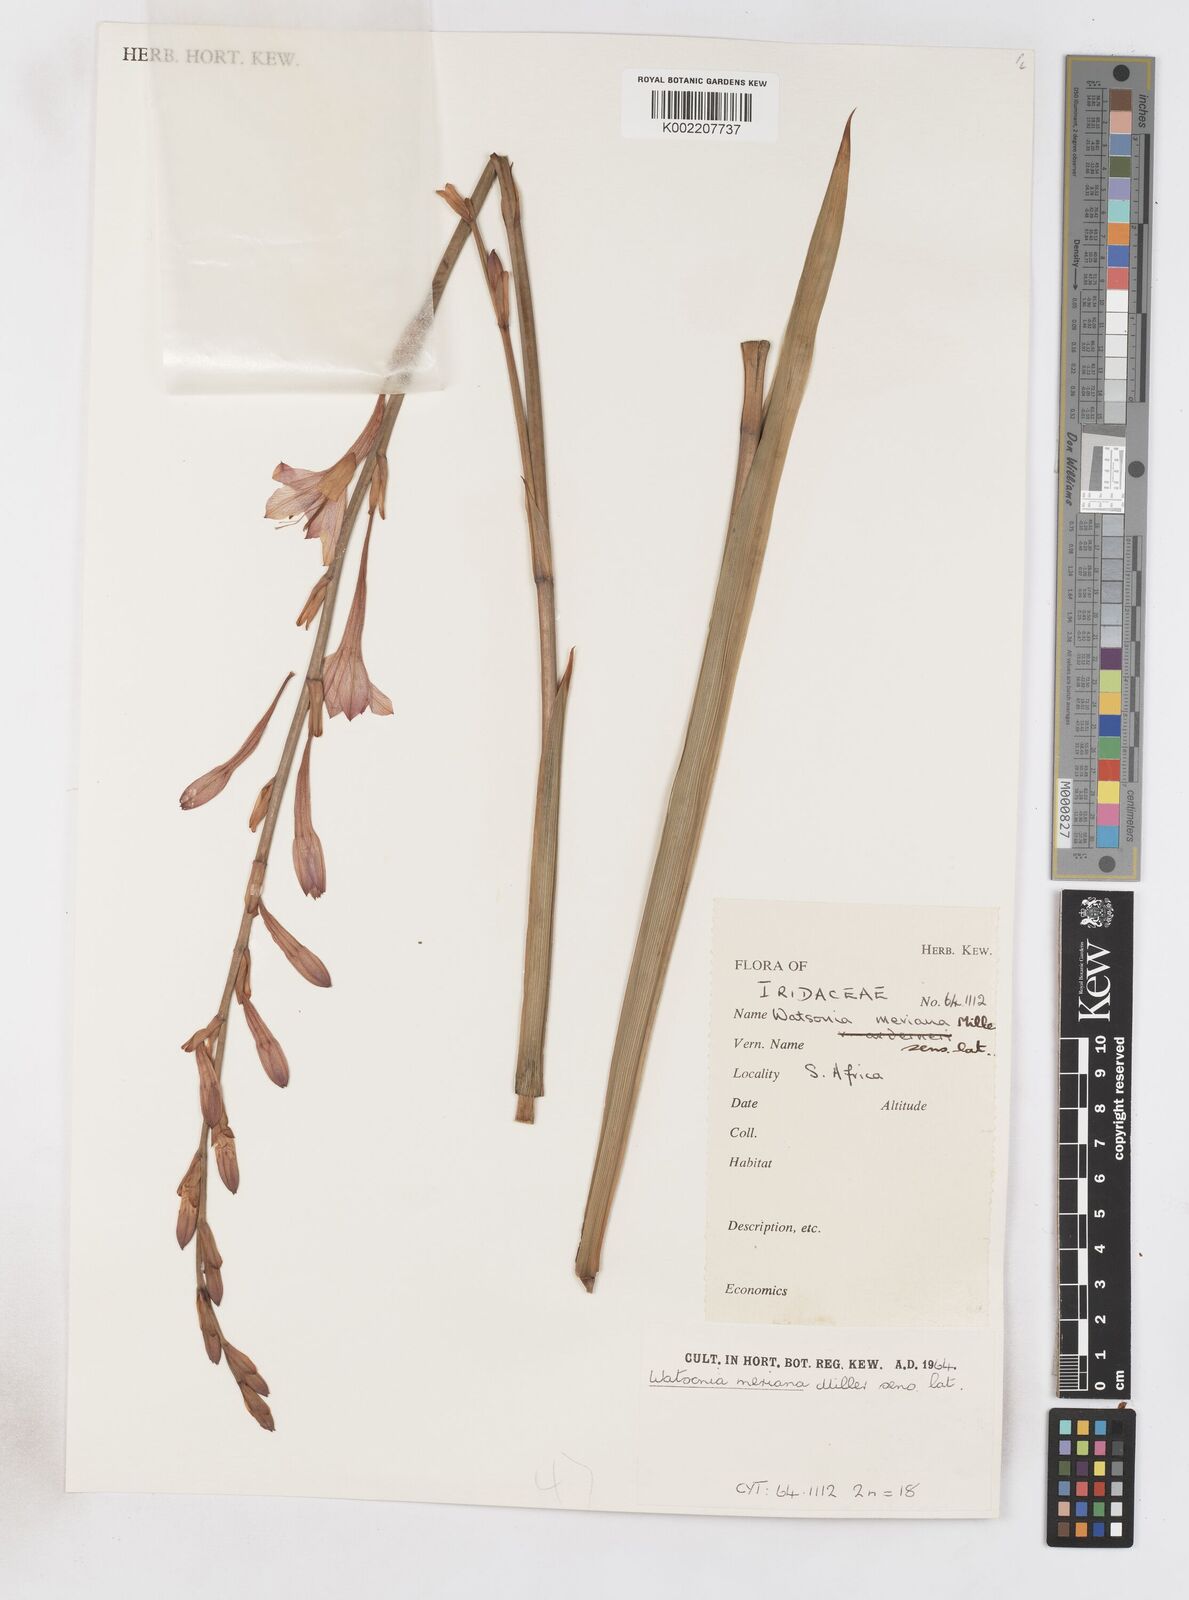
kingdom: Plantae
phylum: Tracheophyta
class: Liliopsida
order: Asparagales
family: Iridaceae
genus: Watsonia
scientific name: Watsonia meriana
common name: Bulbil bugle-lily
